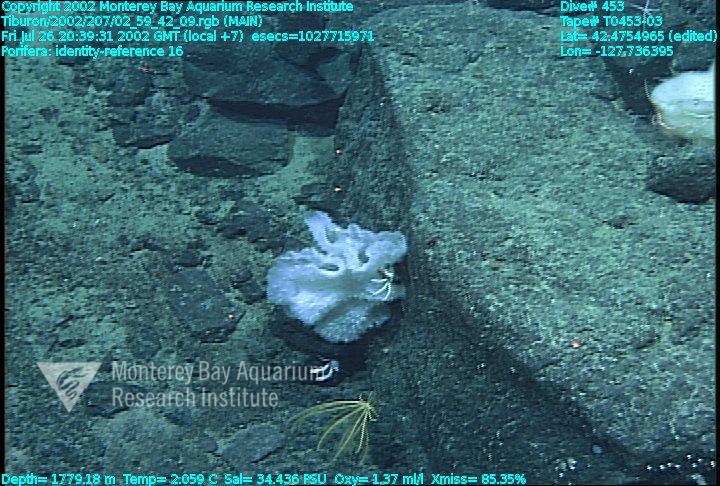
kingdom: Animalia
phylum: Porifera
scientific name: Porifera
